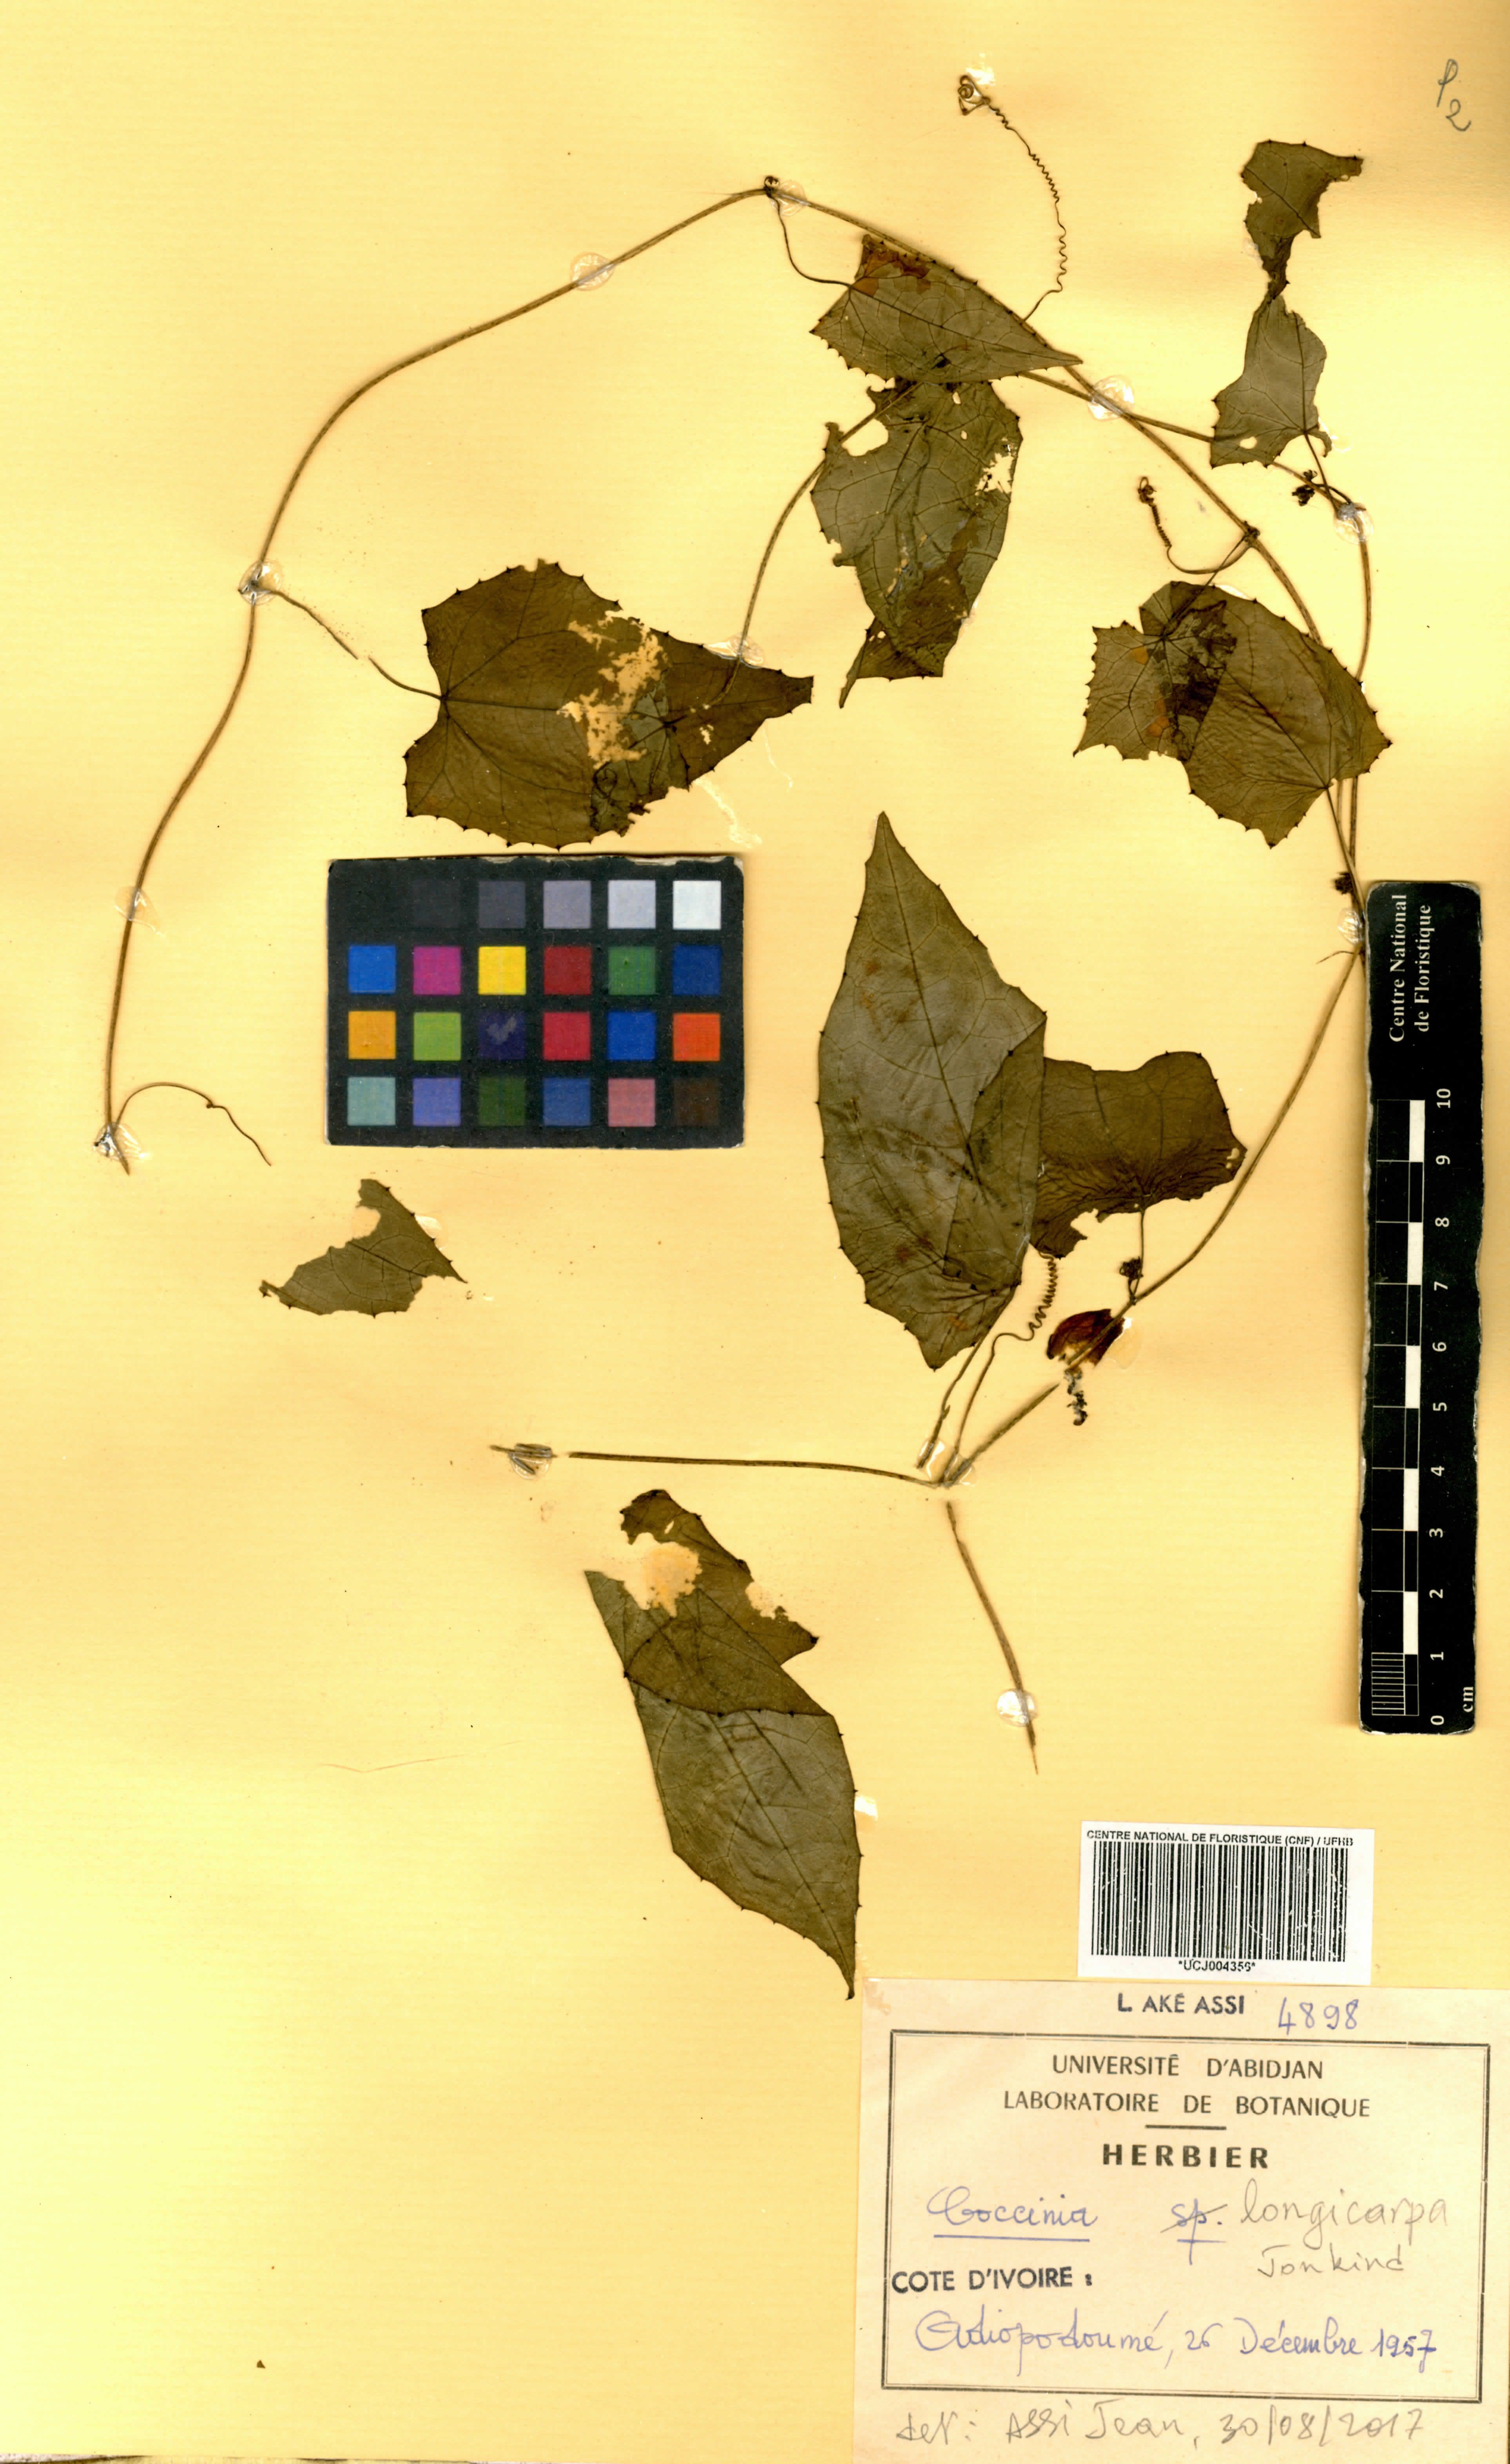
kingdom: Plantae
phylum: Tracheophyta
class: Magnoliopsida
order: Cucurbitales
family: Cucurbitaceae
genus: Coccinia
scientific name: Coccinia longicarpa
